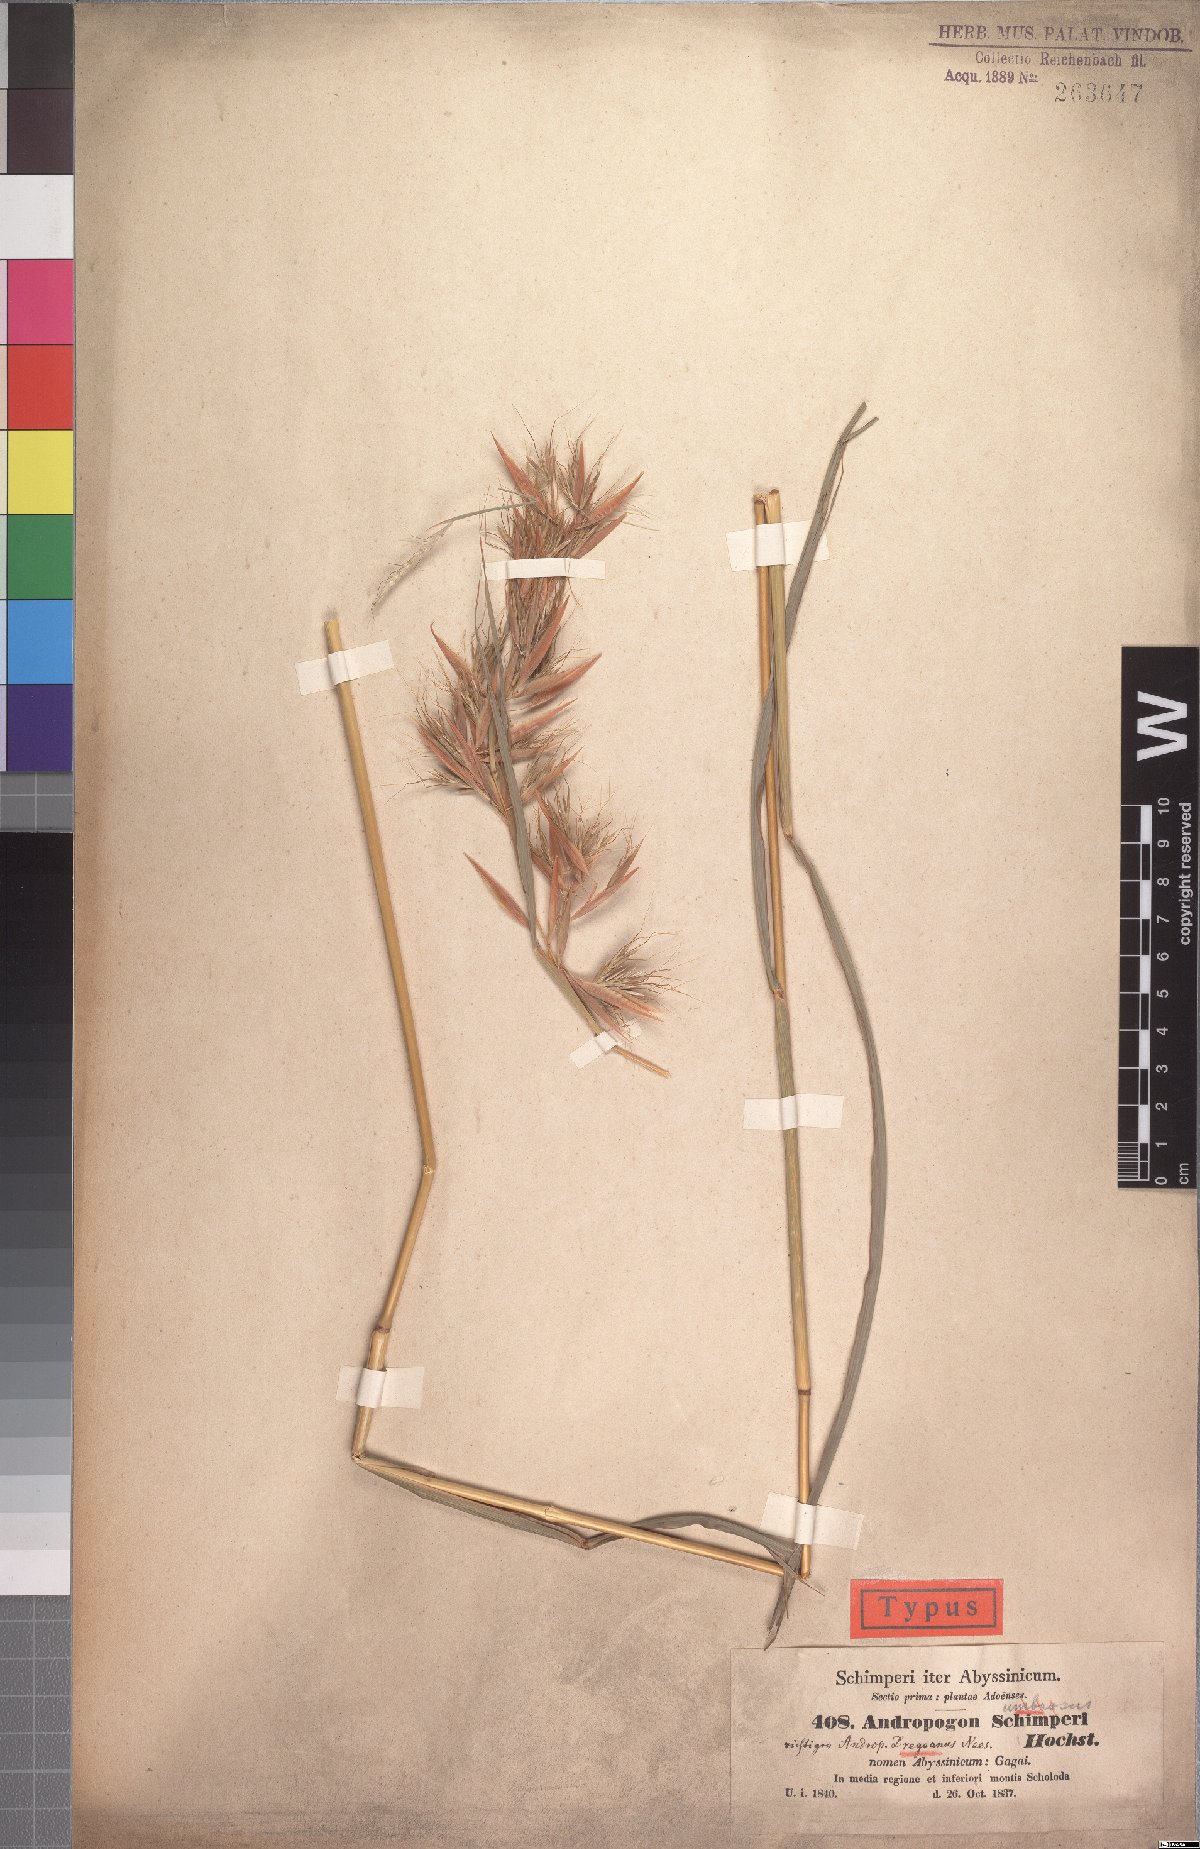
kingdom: Plantae
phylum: Tracheophyta
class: Liliopsida
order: Poales
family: Poaceae
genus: Hyparrhenia
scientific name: Hyparrhenia schimperi
